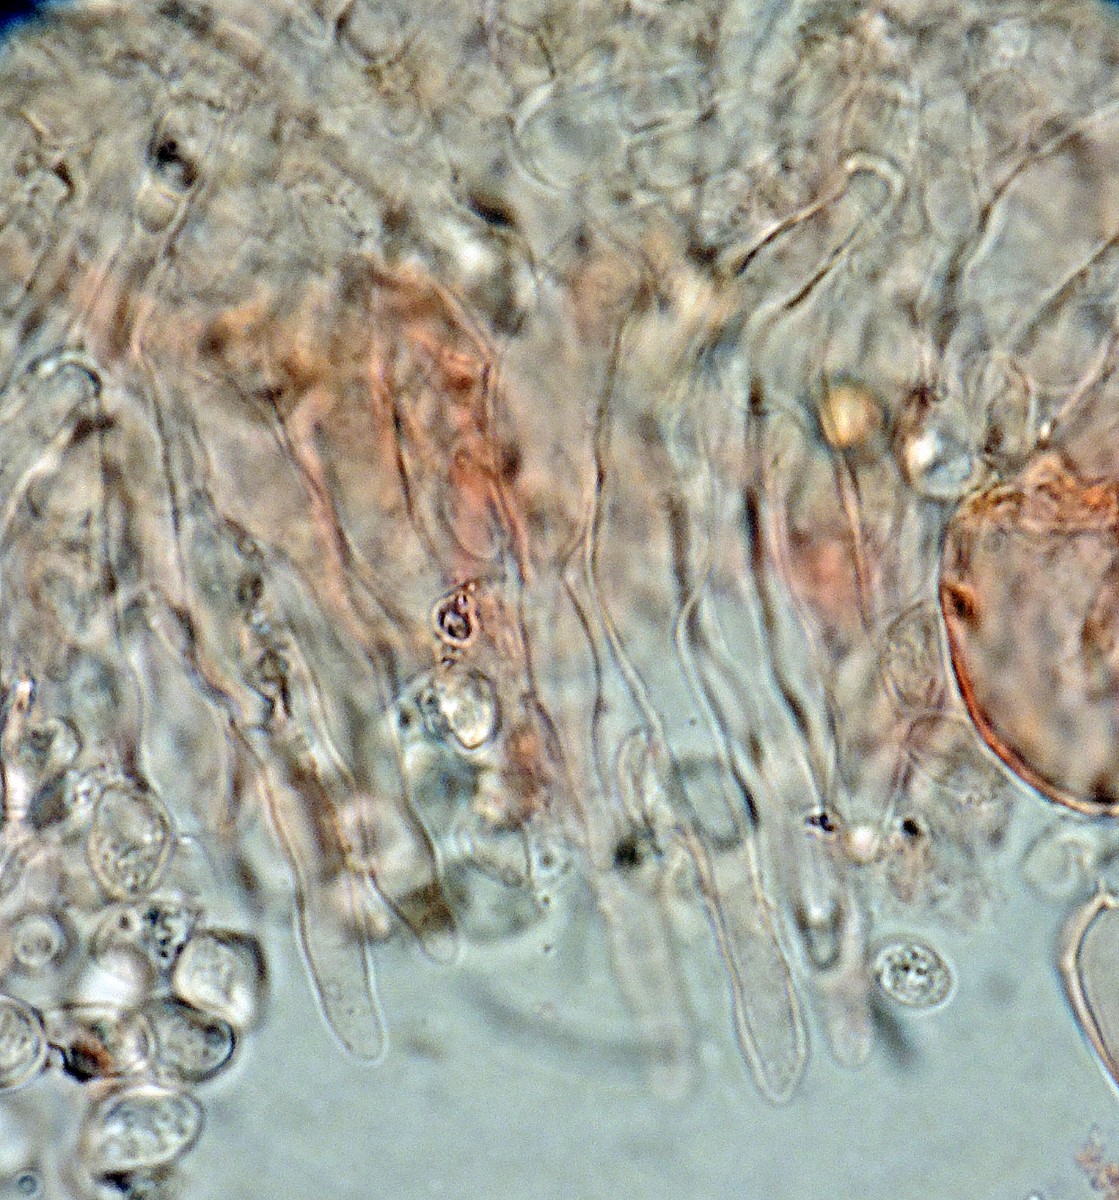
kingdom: Fungi
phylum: Basidiomycota
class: Agaricomycetes
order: Agaricales
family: Tubariaceae
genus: Flammulaster
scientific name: Flammulaster carpophilus
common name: bøge-grynskælhat
